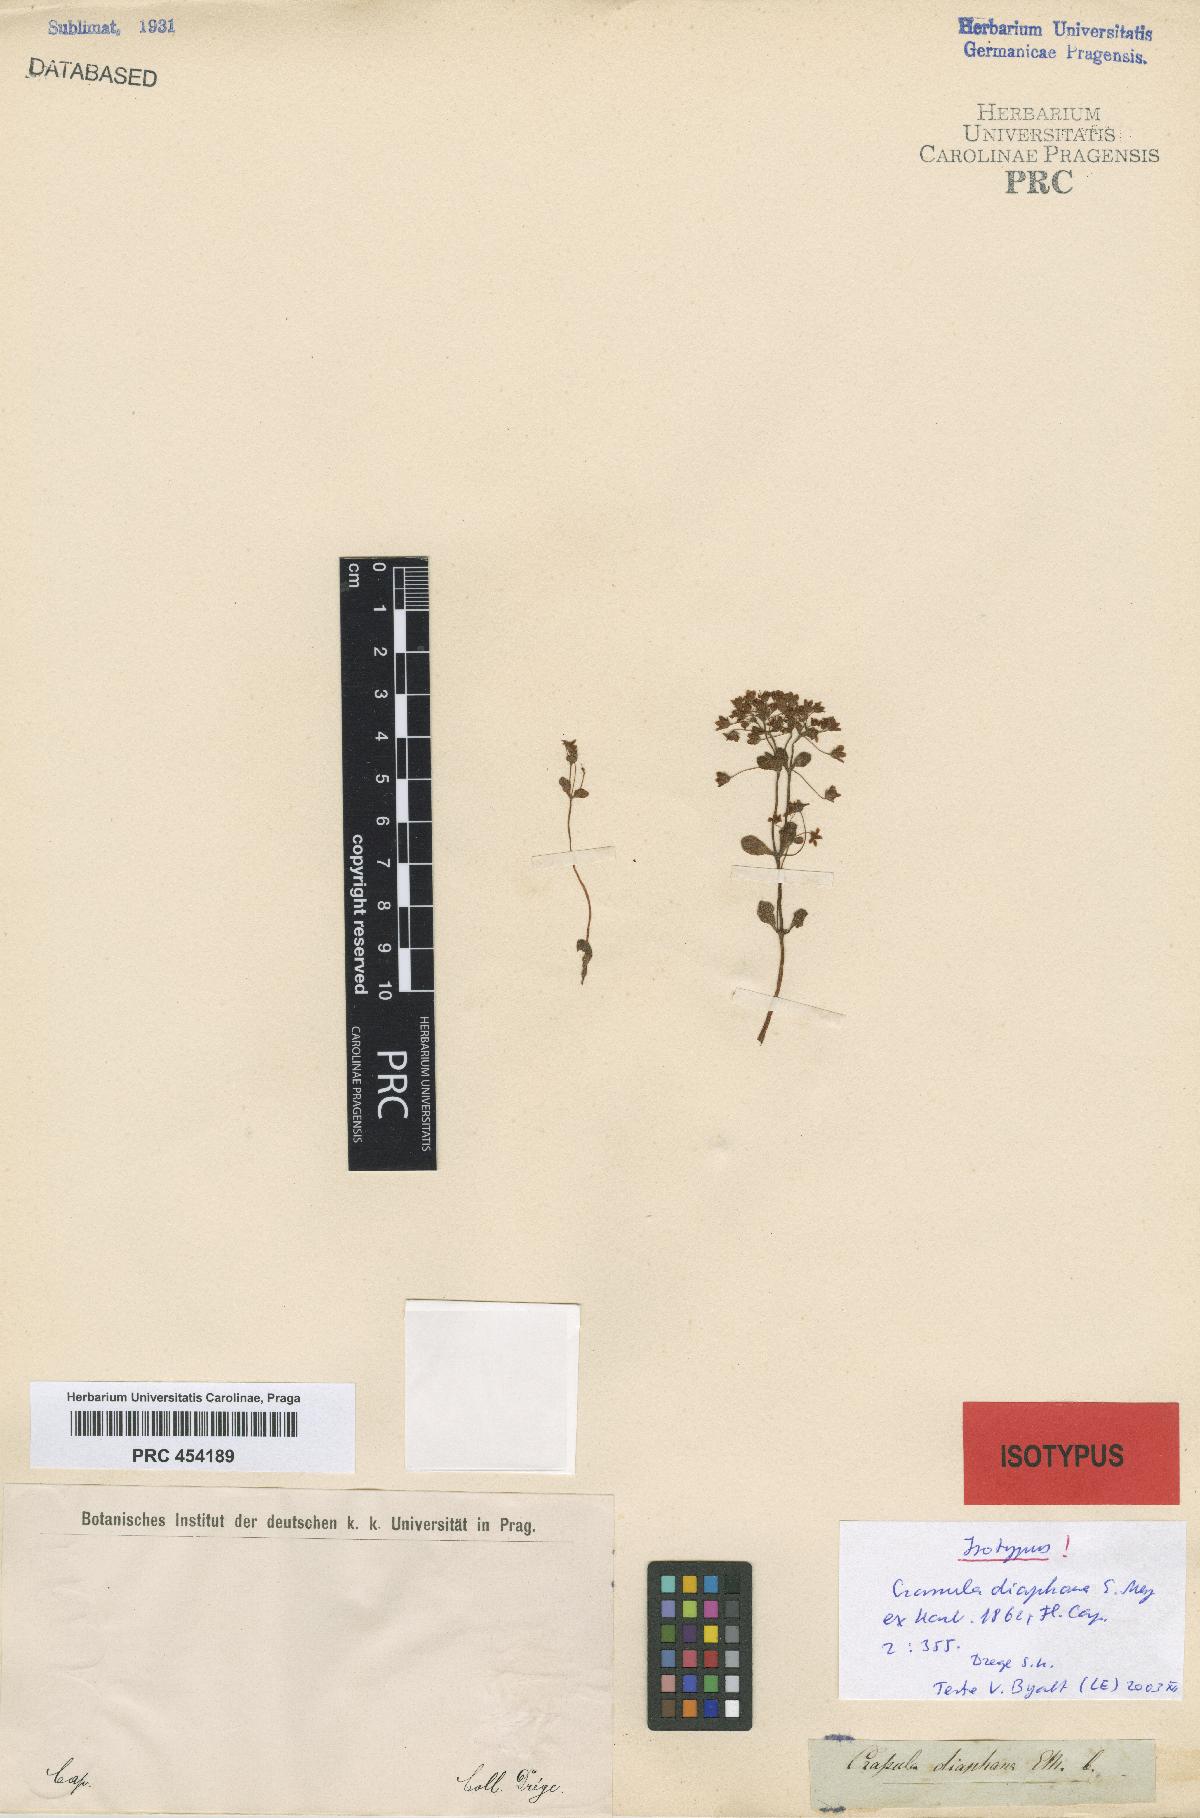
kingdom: Plantae
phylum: Tracheophyta
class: Magnoliopsida
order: Saxifragales
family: Crassulaceae
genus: Crassula
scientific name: Crassula strigosa
